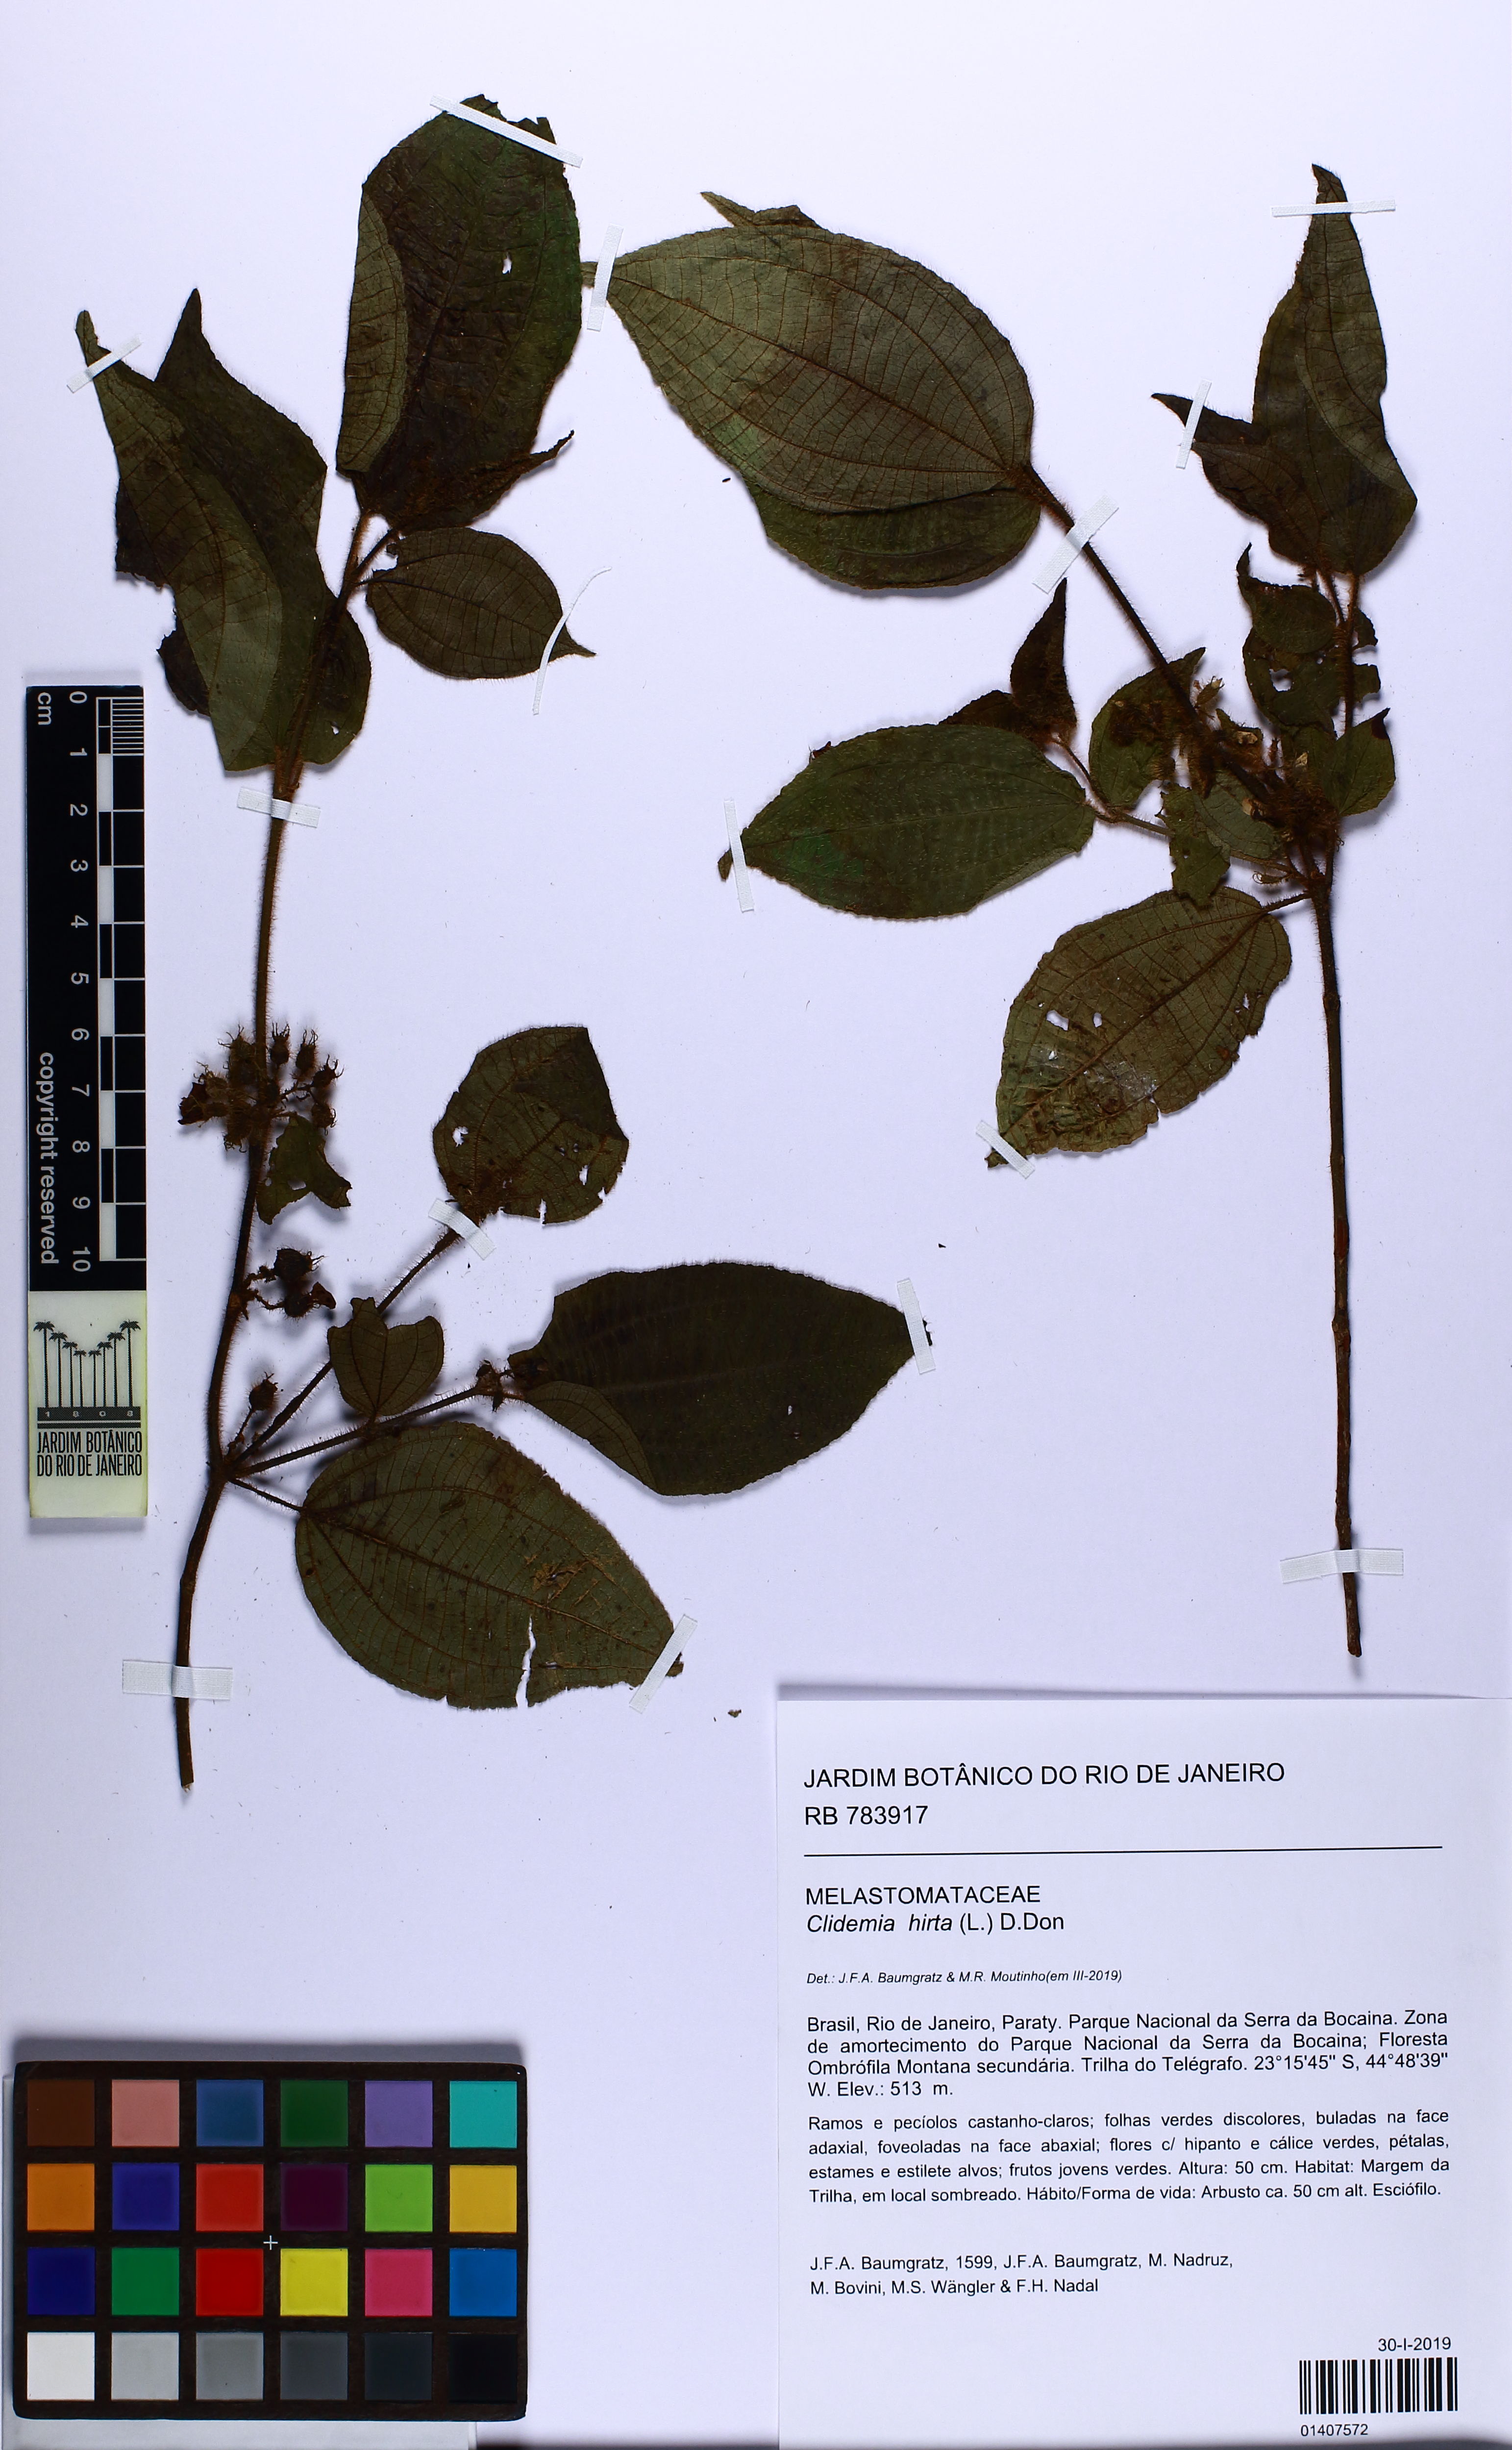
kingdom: Plantae
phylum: Tracheophyta
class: Magnoliopsida
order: Myrtales
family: Melastomataceae
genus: Miconia
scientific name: Miconia crenata
